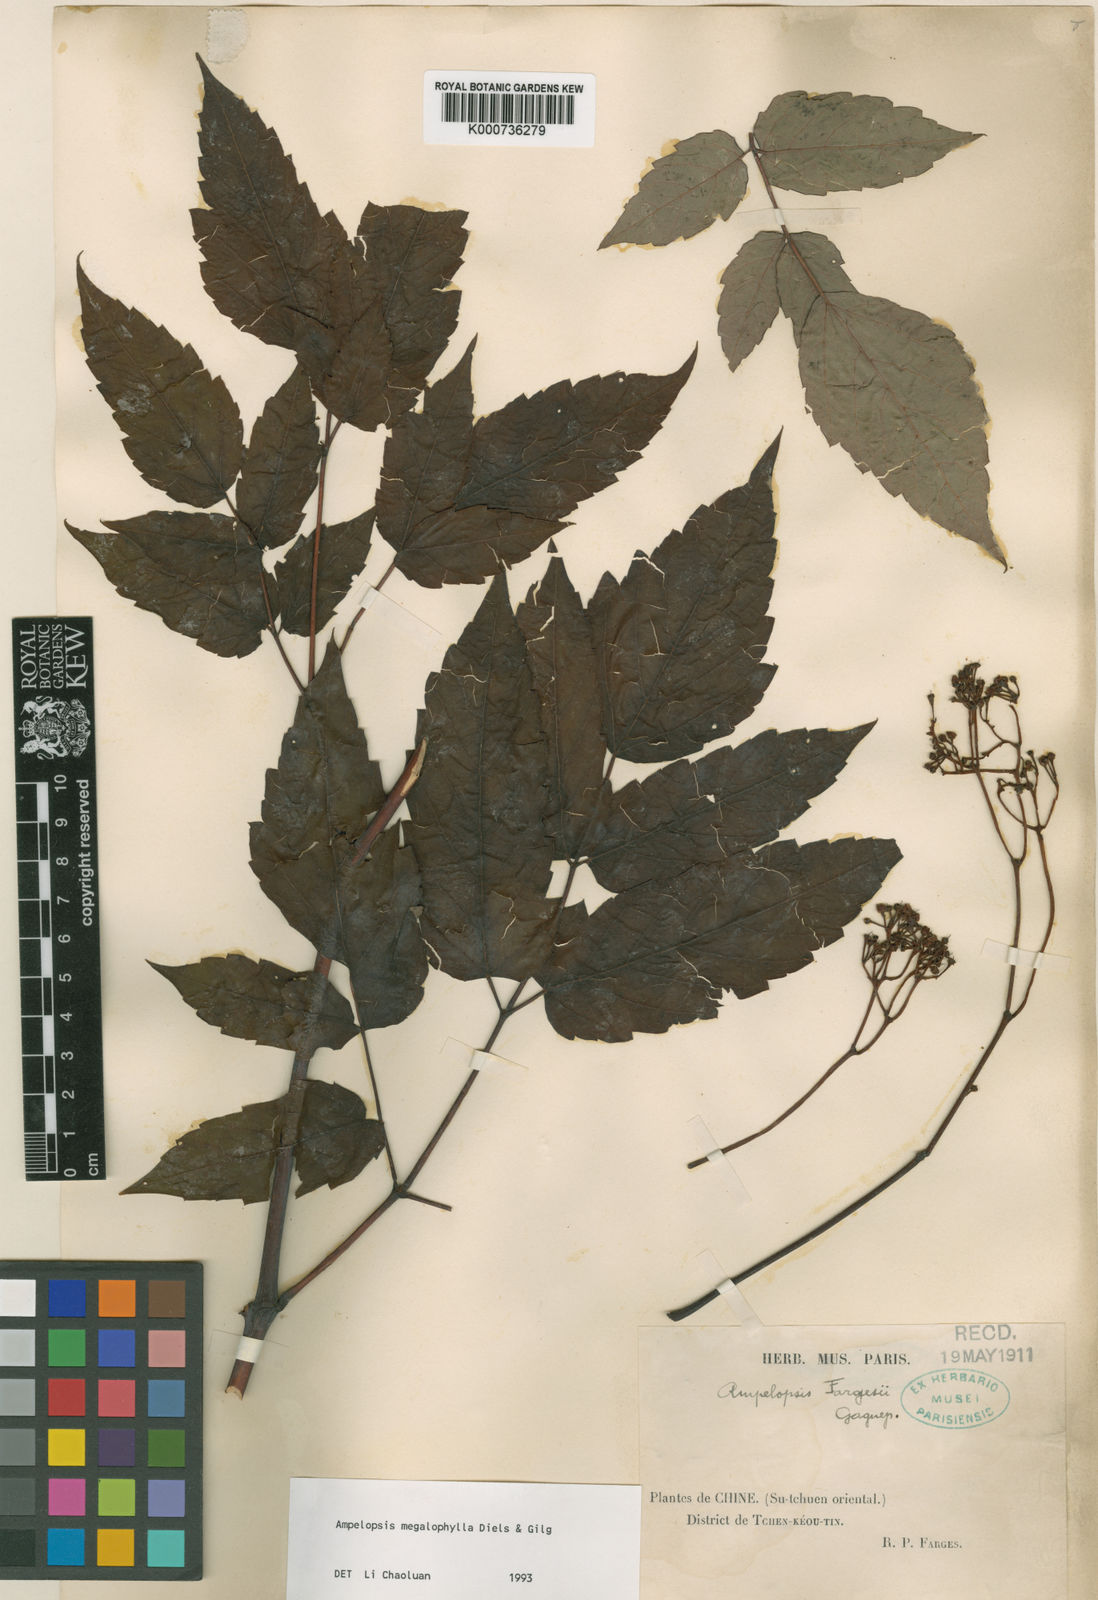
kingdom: Plantae
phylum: Tracheophyta
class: Magnoliopsida
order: Vitales
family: Vitaceae
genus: Nekemias
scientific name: Nekemias megalophylla
